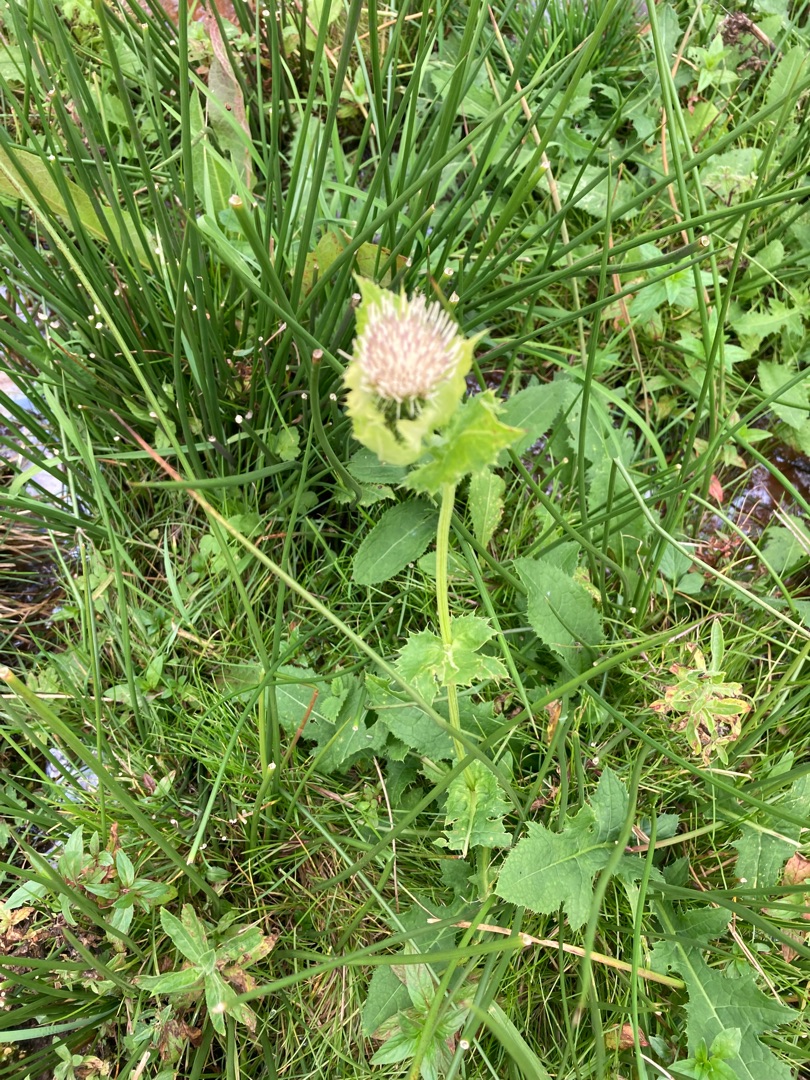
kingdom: Plantae
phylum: Tracheophyta
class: Magnoliopsida
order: Asterales
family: Asteraceae
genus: Cirsium
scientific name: Cirsium oleraceum
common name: Kål-tidsel
